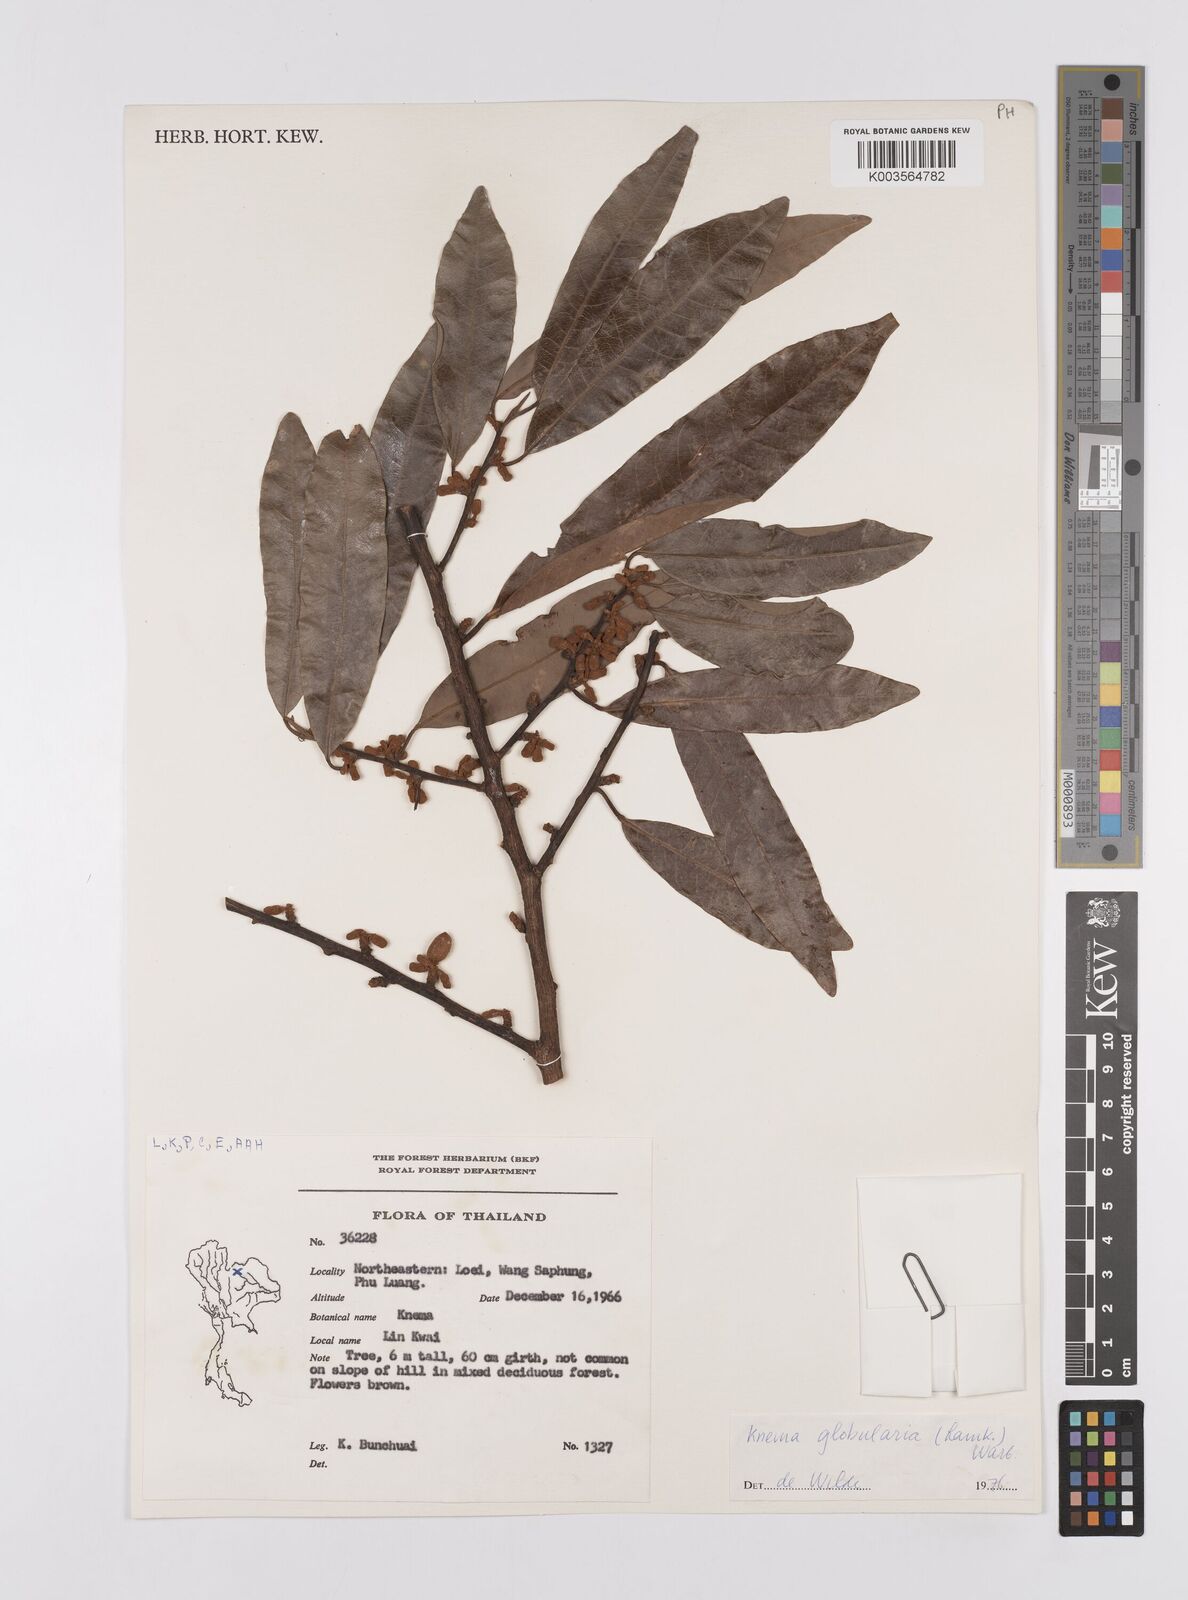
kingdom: Plantae
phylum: Tracheophyta
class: Magnoliopsida
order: Magnoliales
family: Myristicaceae
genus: Knema
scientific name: Knema globularia
